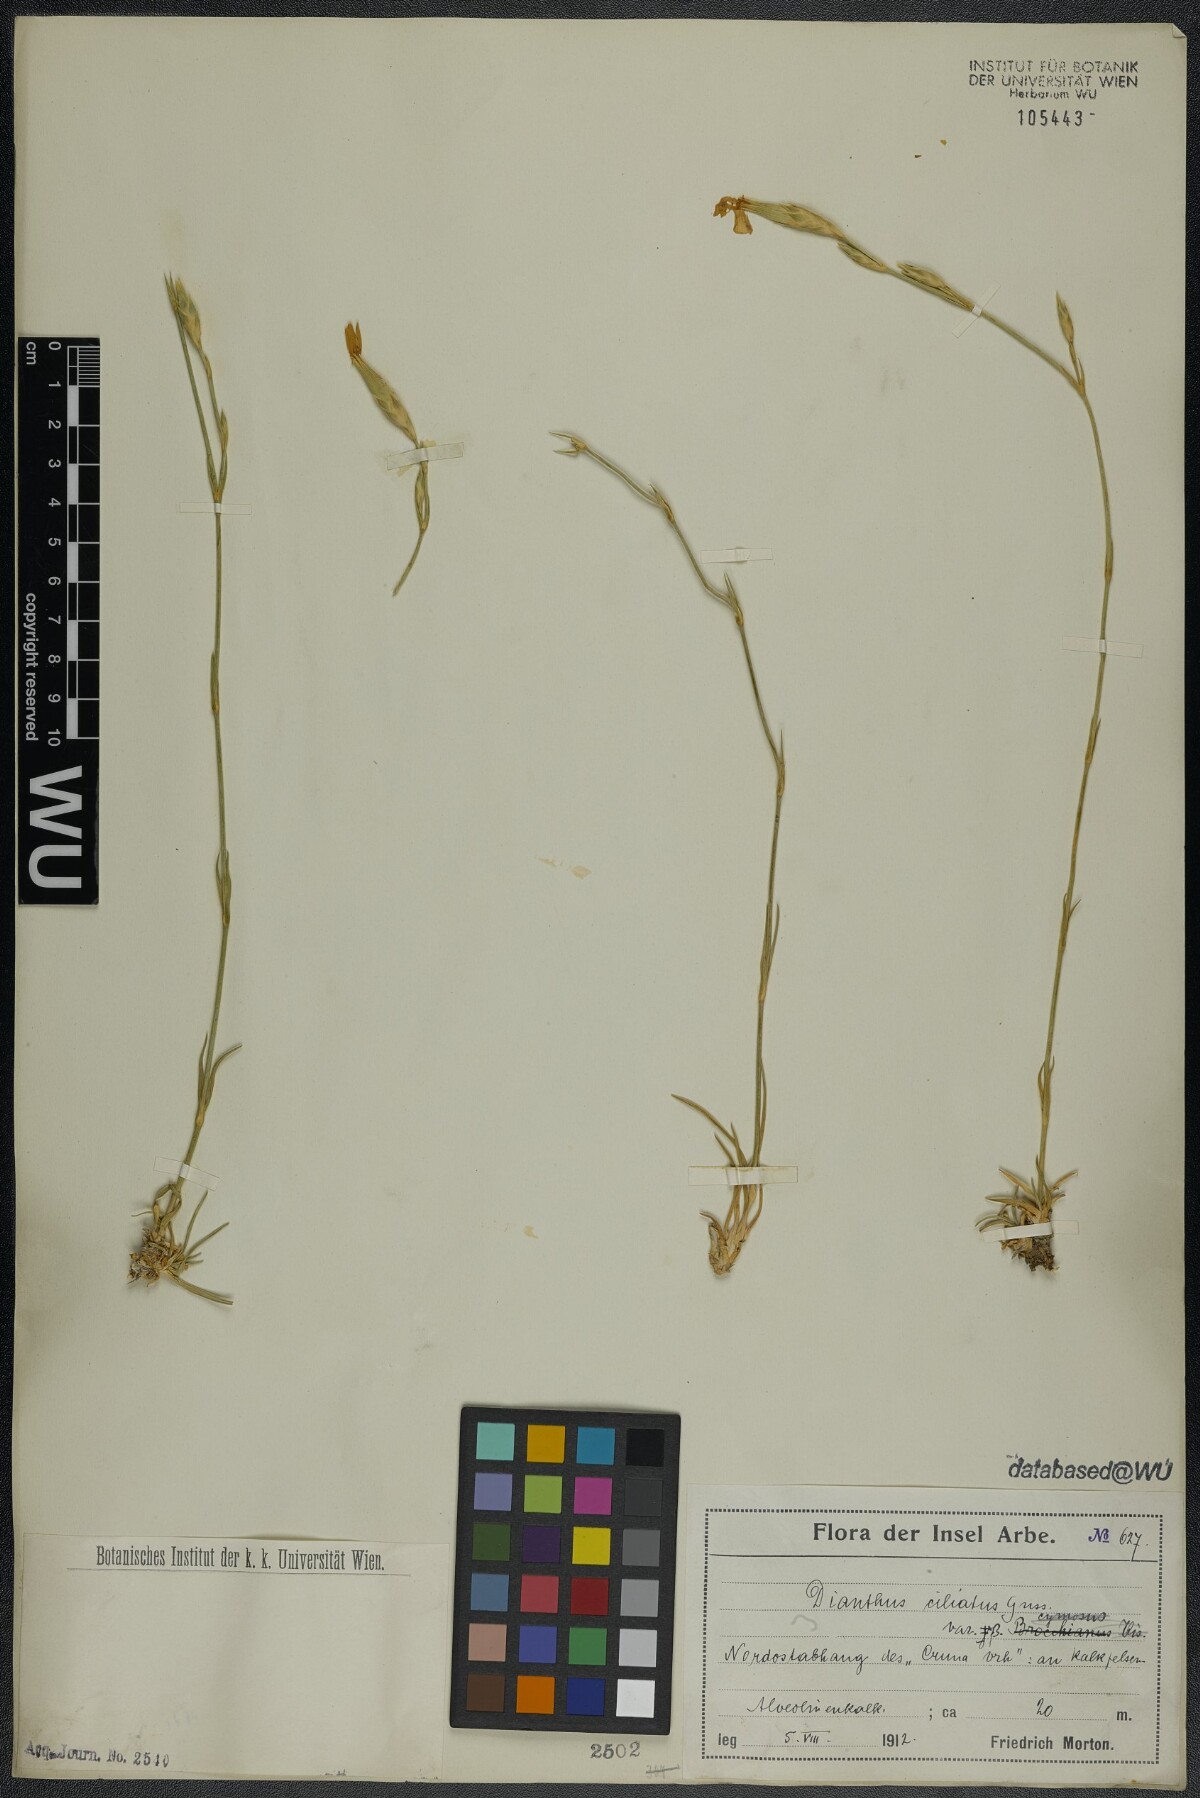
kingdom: Plantae
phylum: Tracheophyta
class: Magnoliopsida
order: Caryophyllales
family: Caryophyllaceae
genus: Dianthus
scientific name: Dianthus ciliatus
